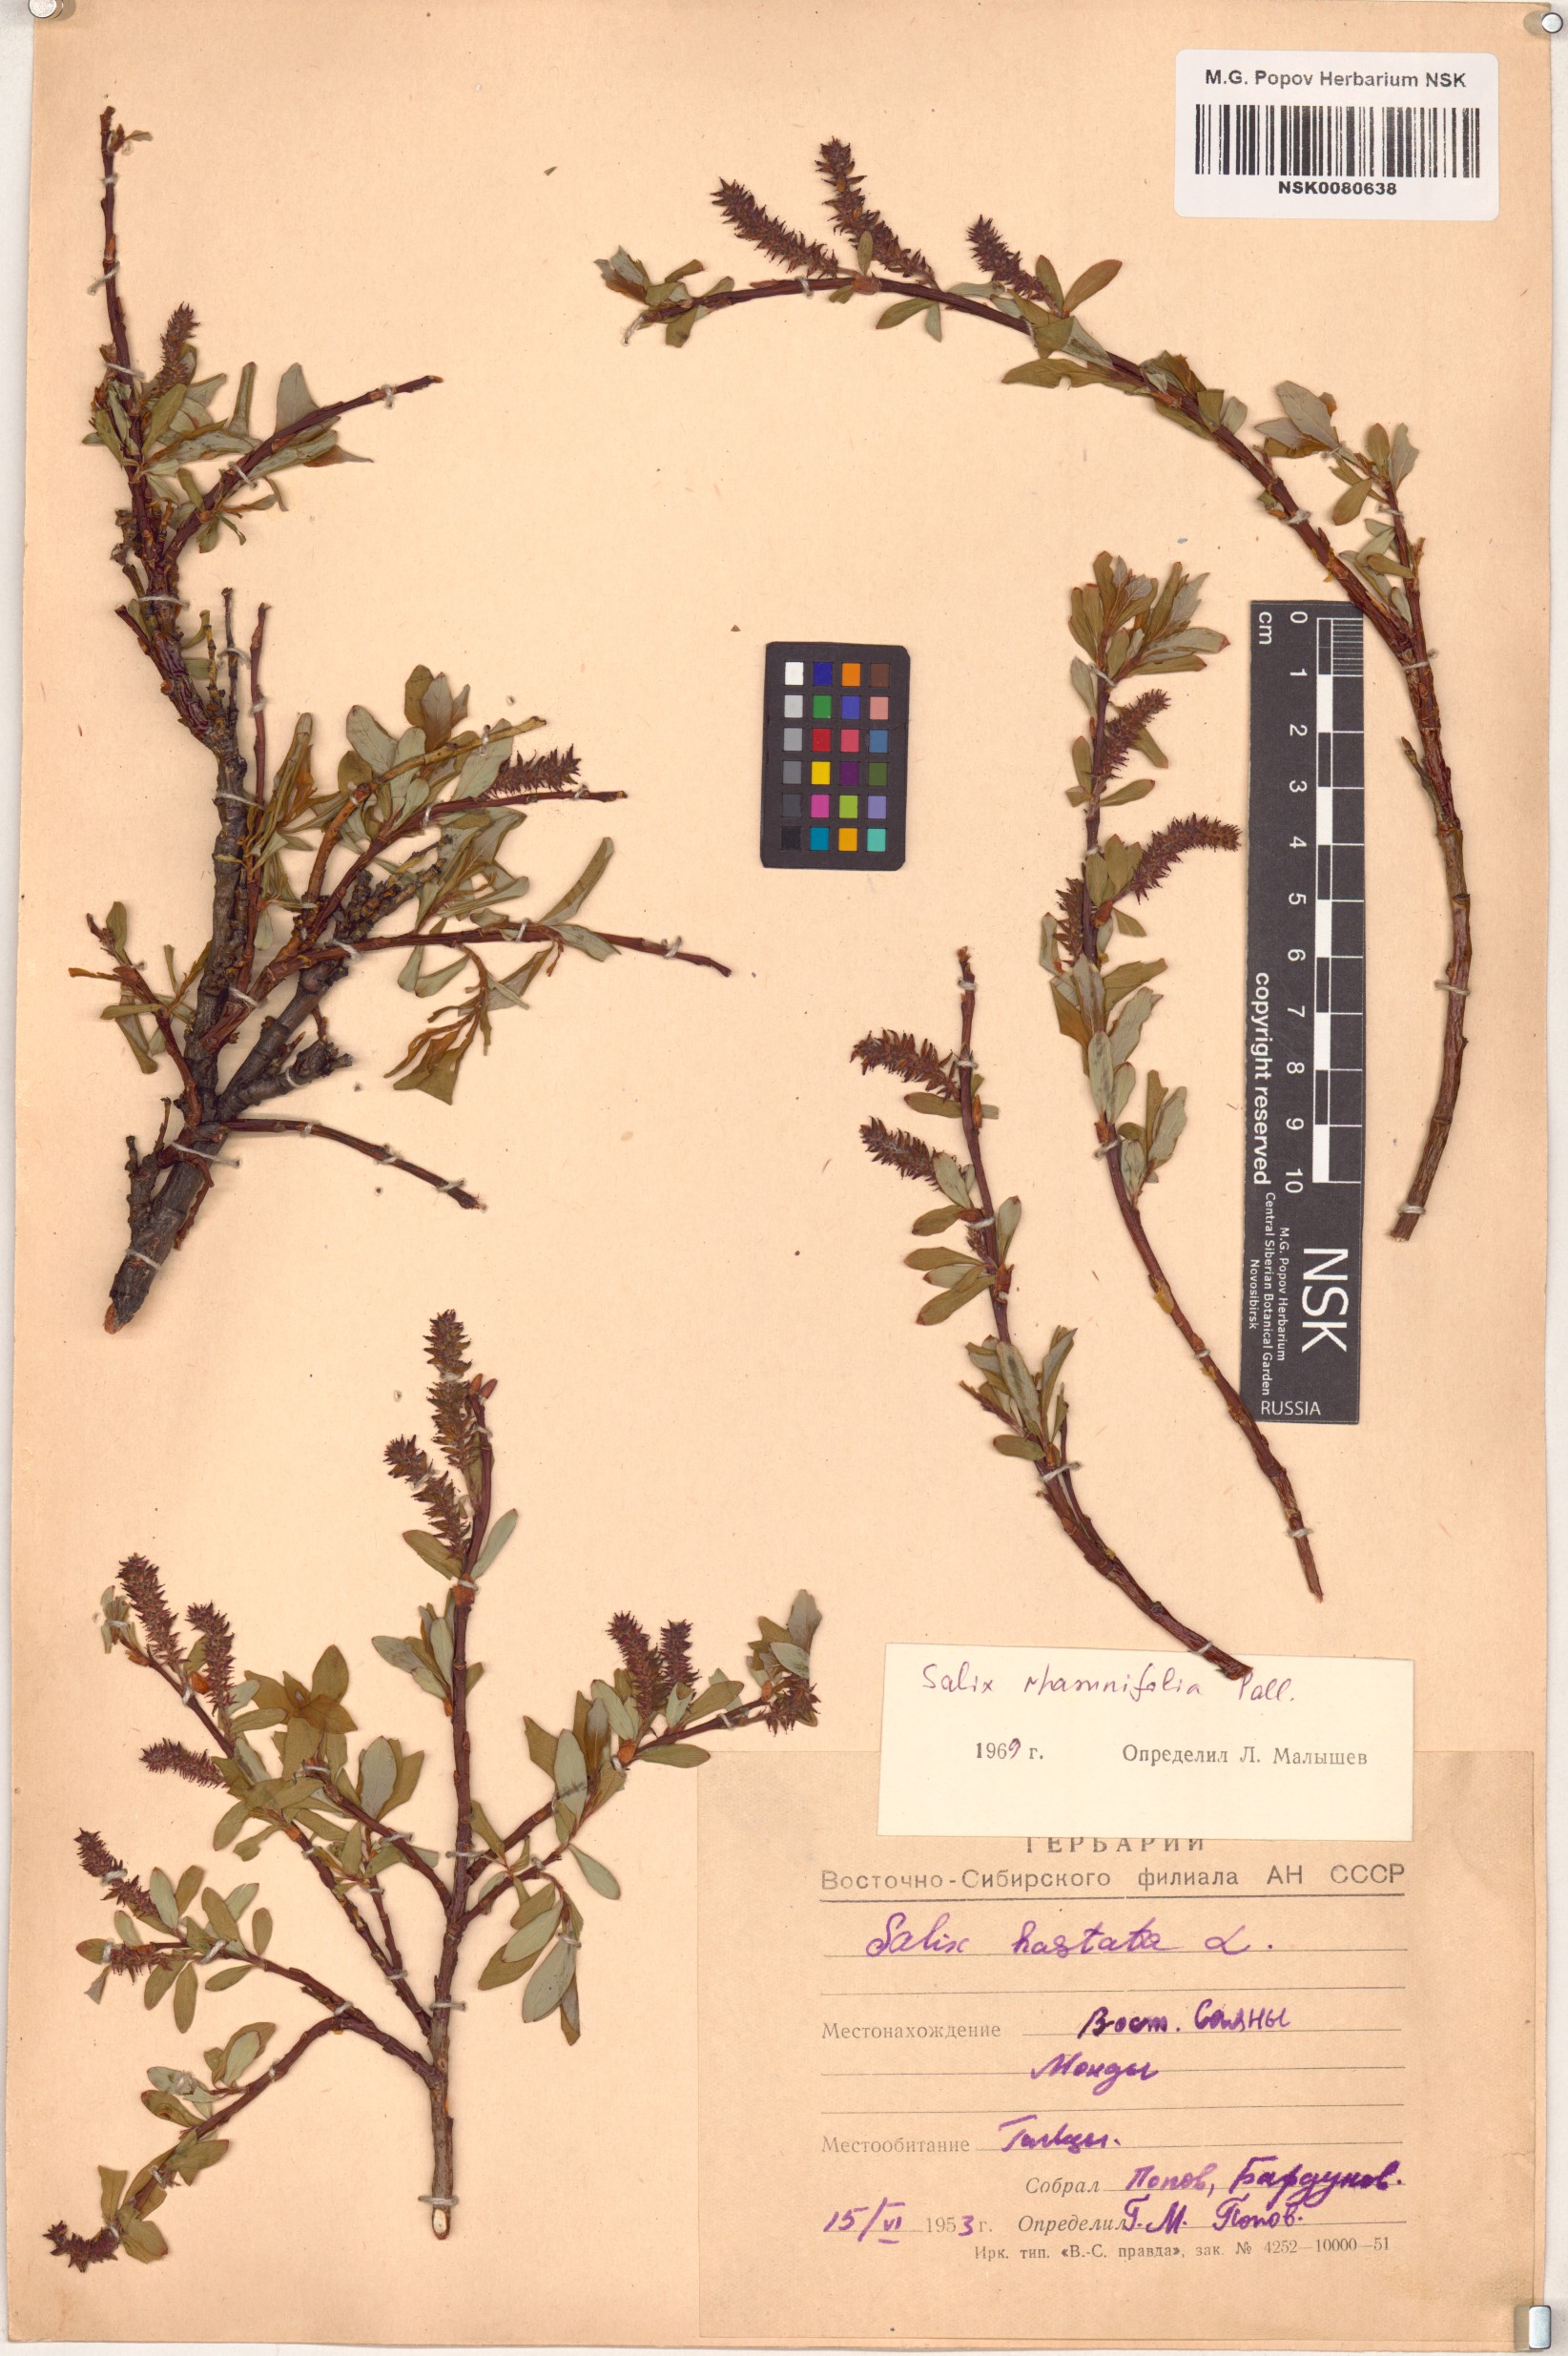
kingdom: Plantae
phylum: Tracheophyta
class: Magnoliopsida
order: Malpighiales
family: Salicaceae
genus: Salix
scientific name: Salix rhamnifolia
